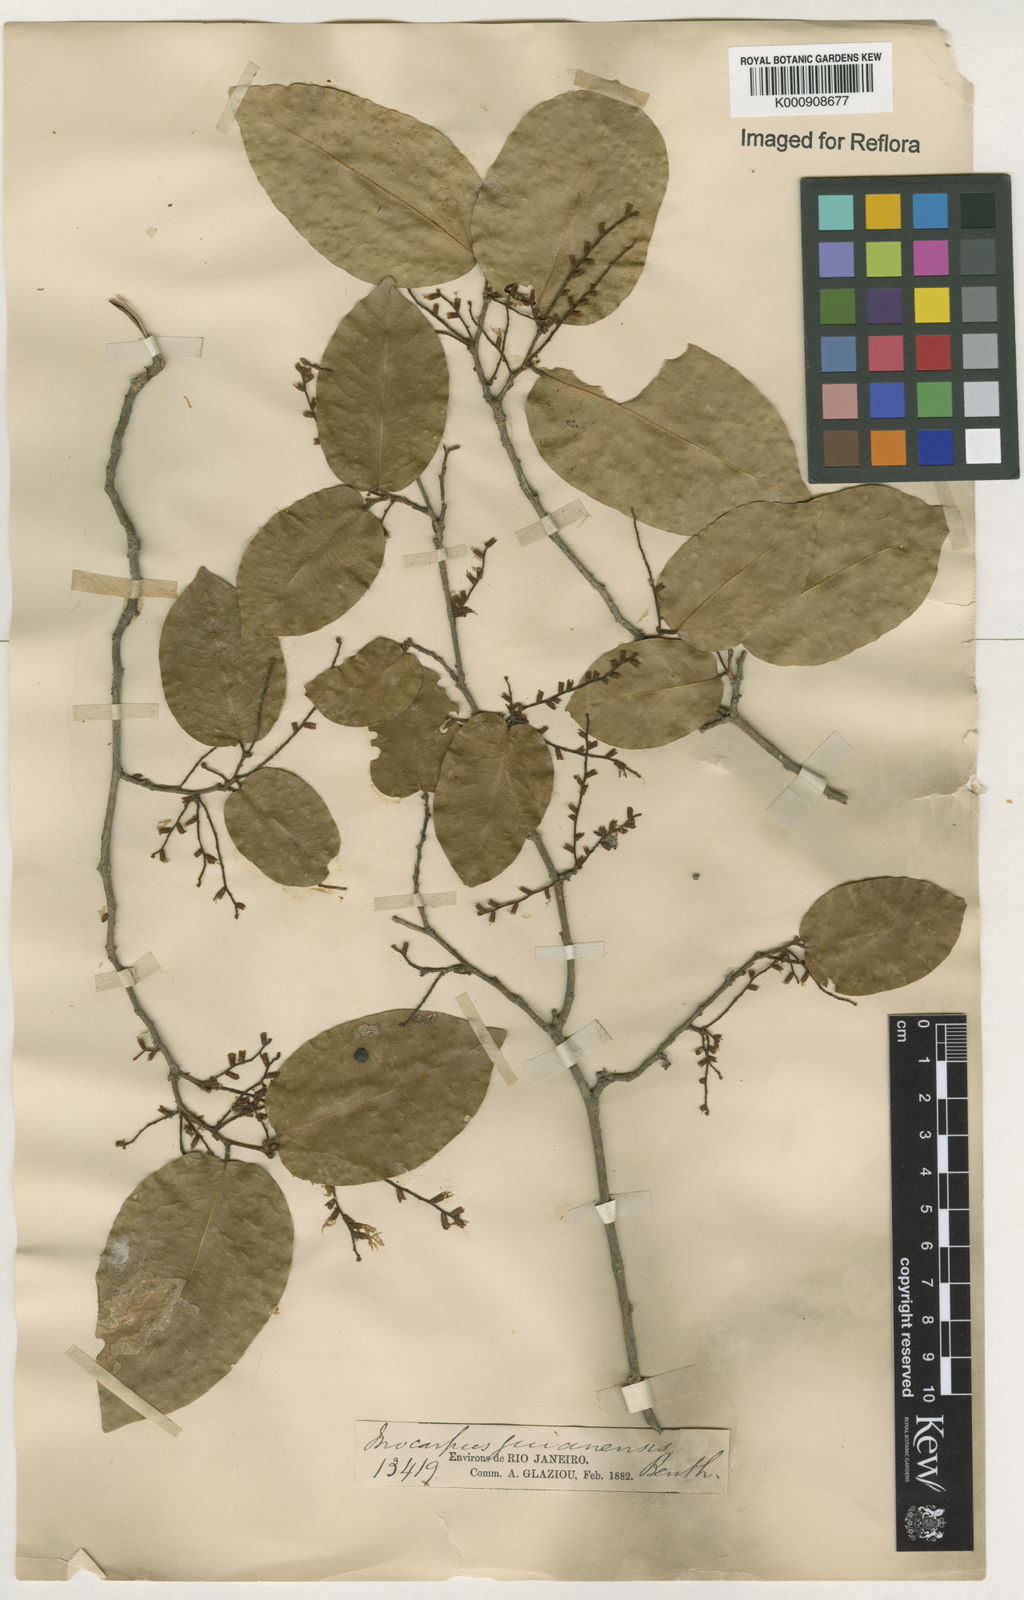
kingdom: Plantae
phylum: Tracheophyta
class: Magnoliopsida
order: Fabales
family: Fabaceae
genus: Pterocarpus
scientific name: Pterocarpus dubius
